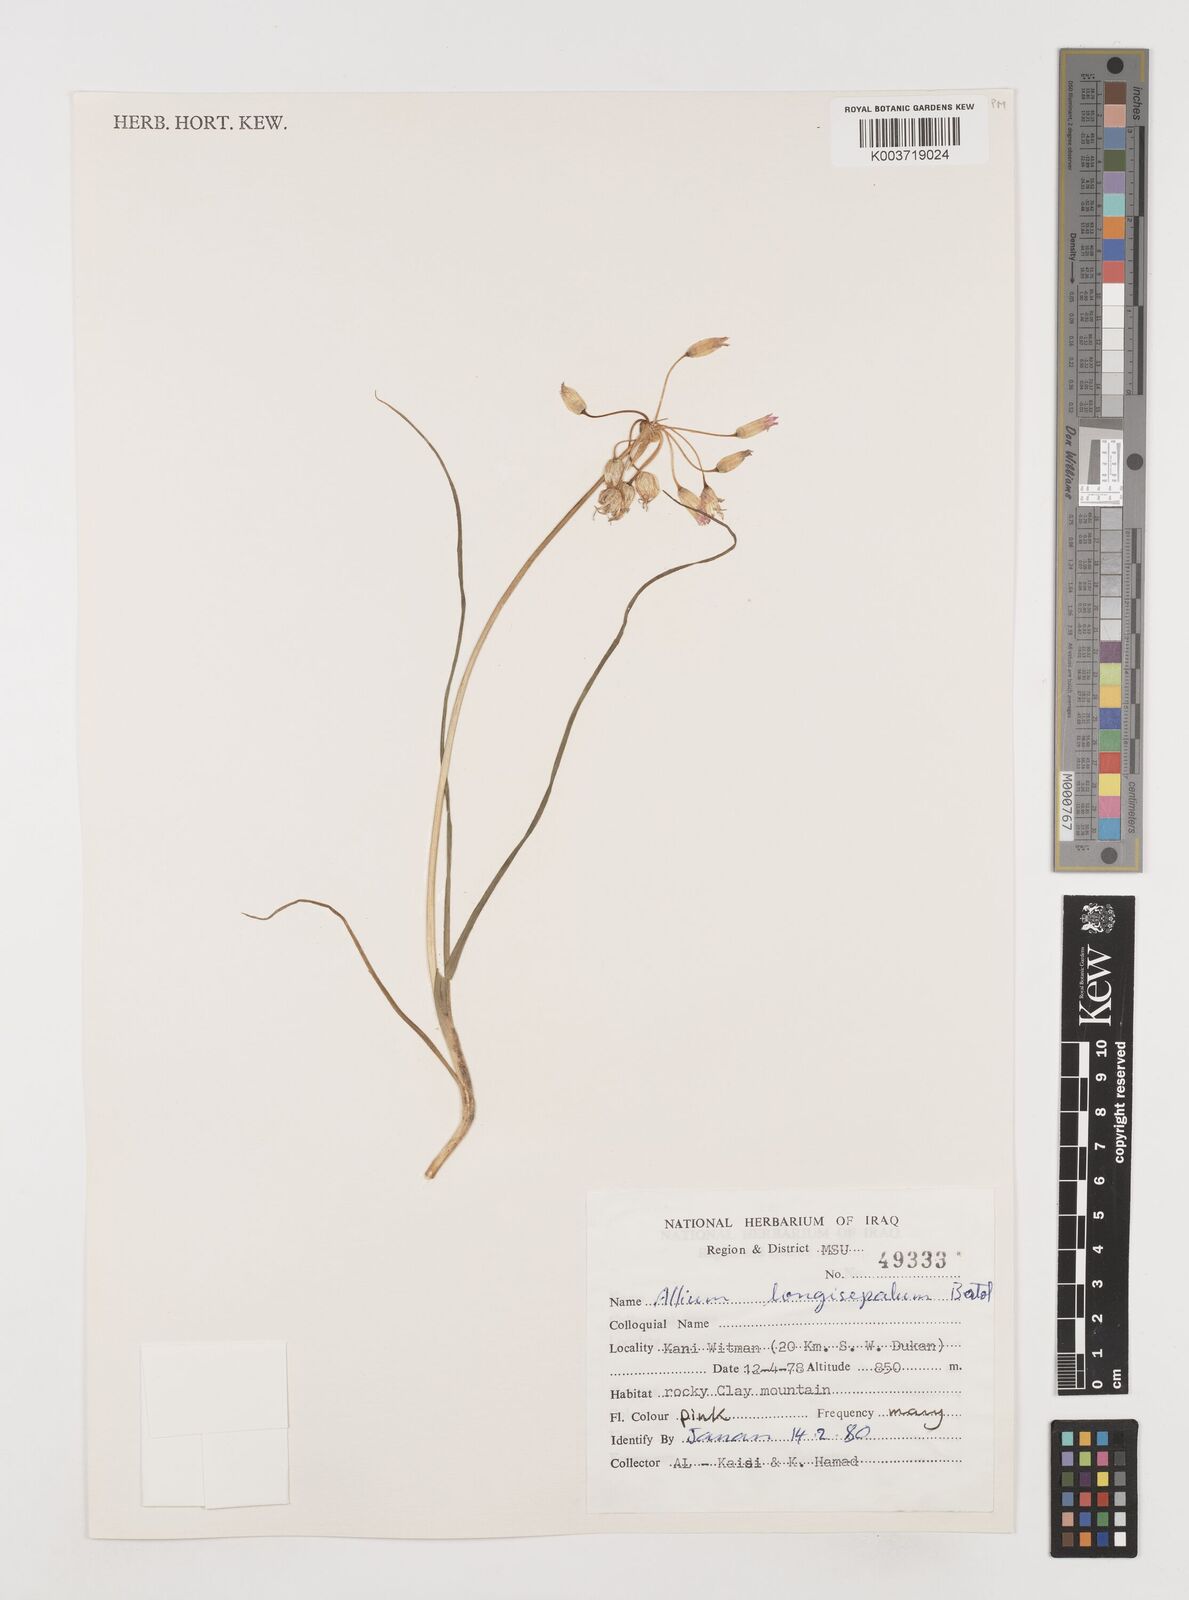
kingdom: Plantae
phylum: Tracheophyta
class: Liliopsida
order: Asparagales
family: Amaryllidaceae
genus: Allium
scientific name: Allium longisepalum
